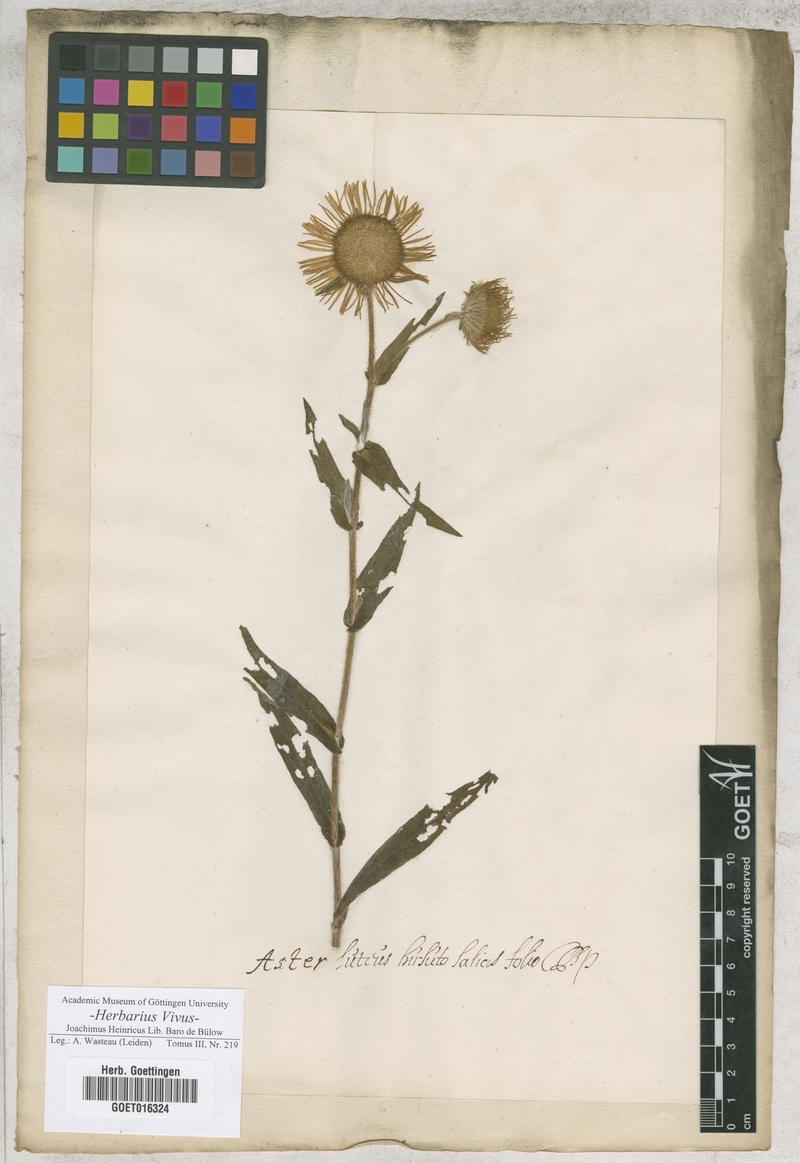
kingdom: Plantae
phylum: Tracheophyta
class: Magnoliopsida
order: Asterales
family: Asteraceae
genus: Pentanema
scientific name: Pentanema hirtum
